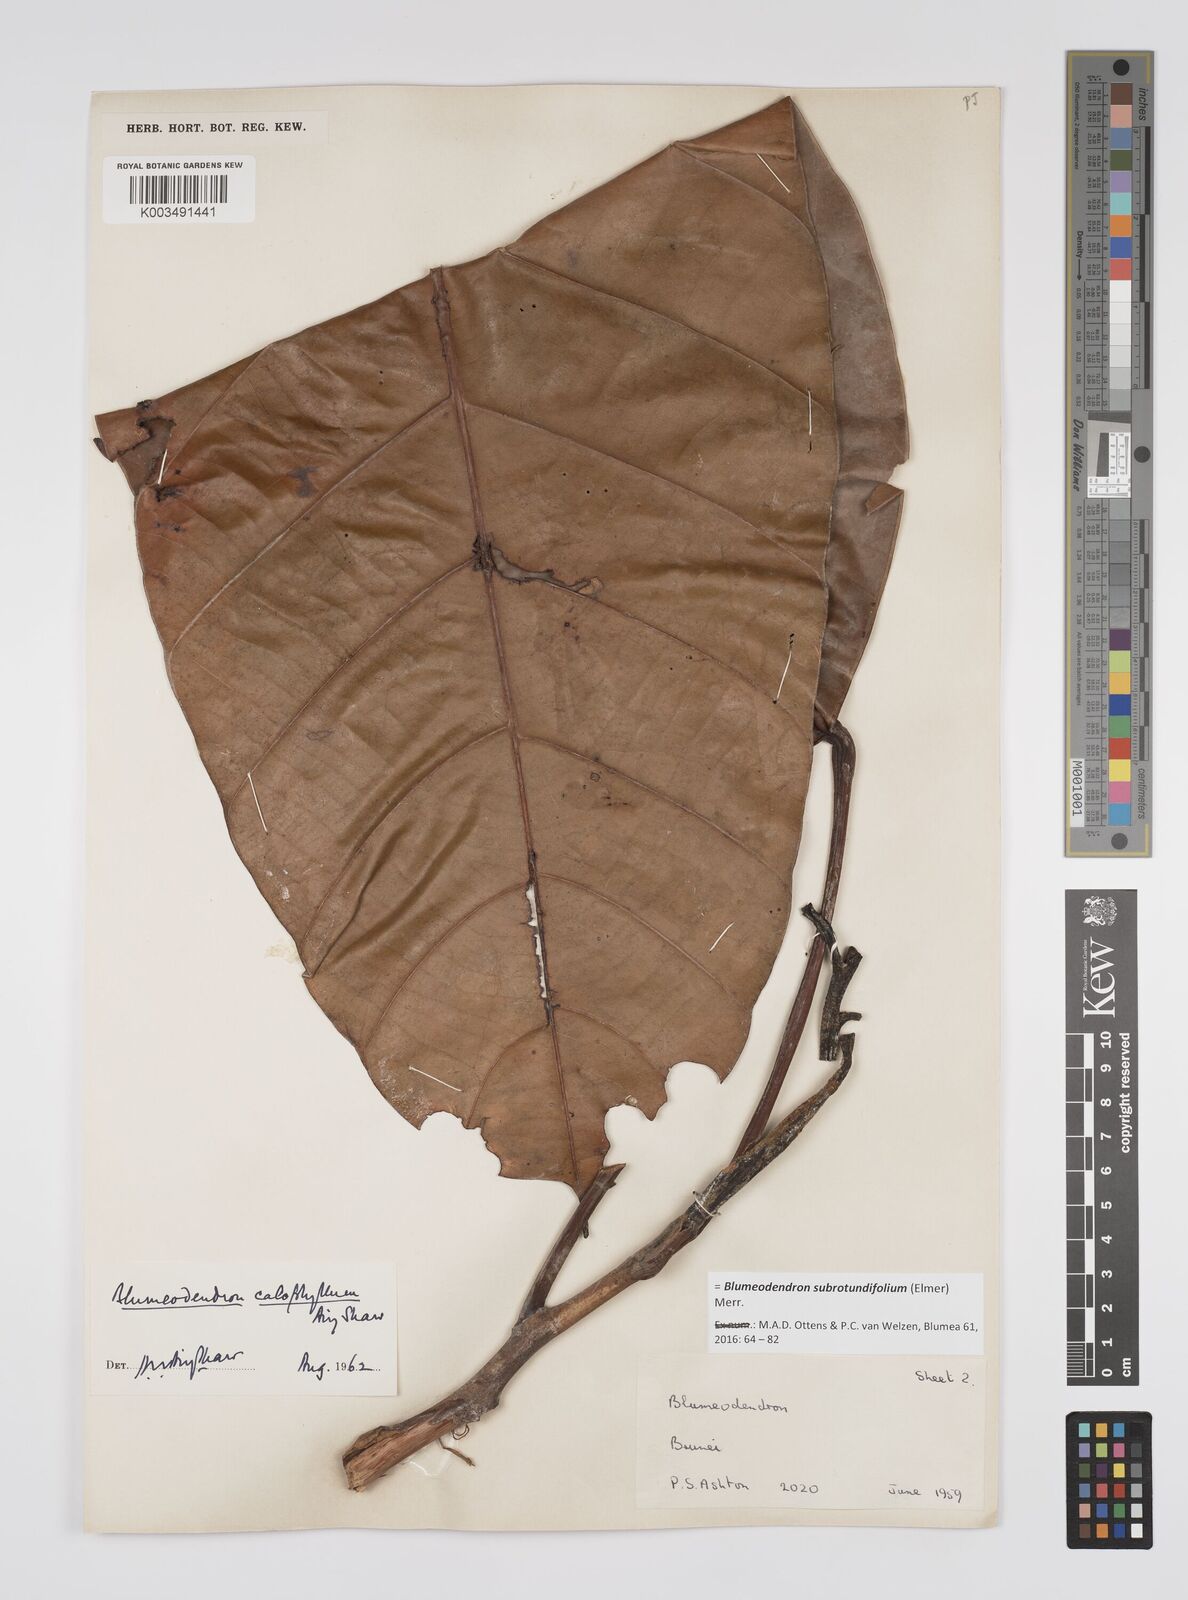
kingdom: Plantae
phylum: Tracheophyta
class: Magnoliopsida
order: Malpighiales
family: Euphorbiaceae
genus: Blumeodendron
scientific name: Blumeodendron subrotundifolium
